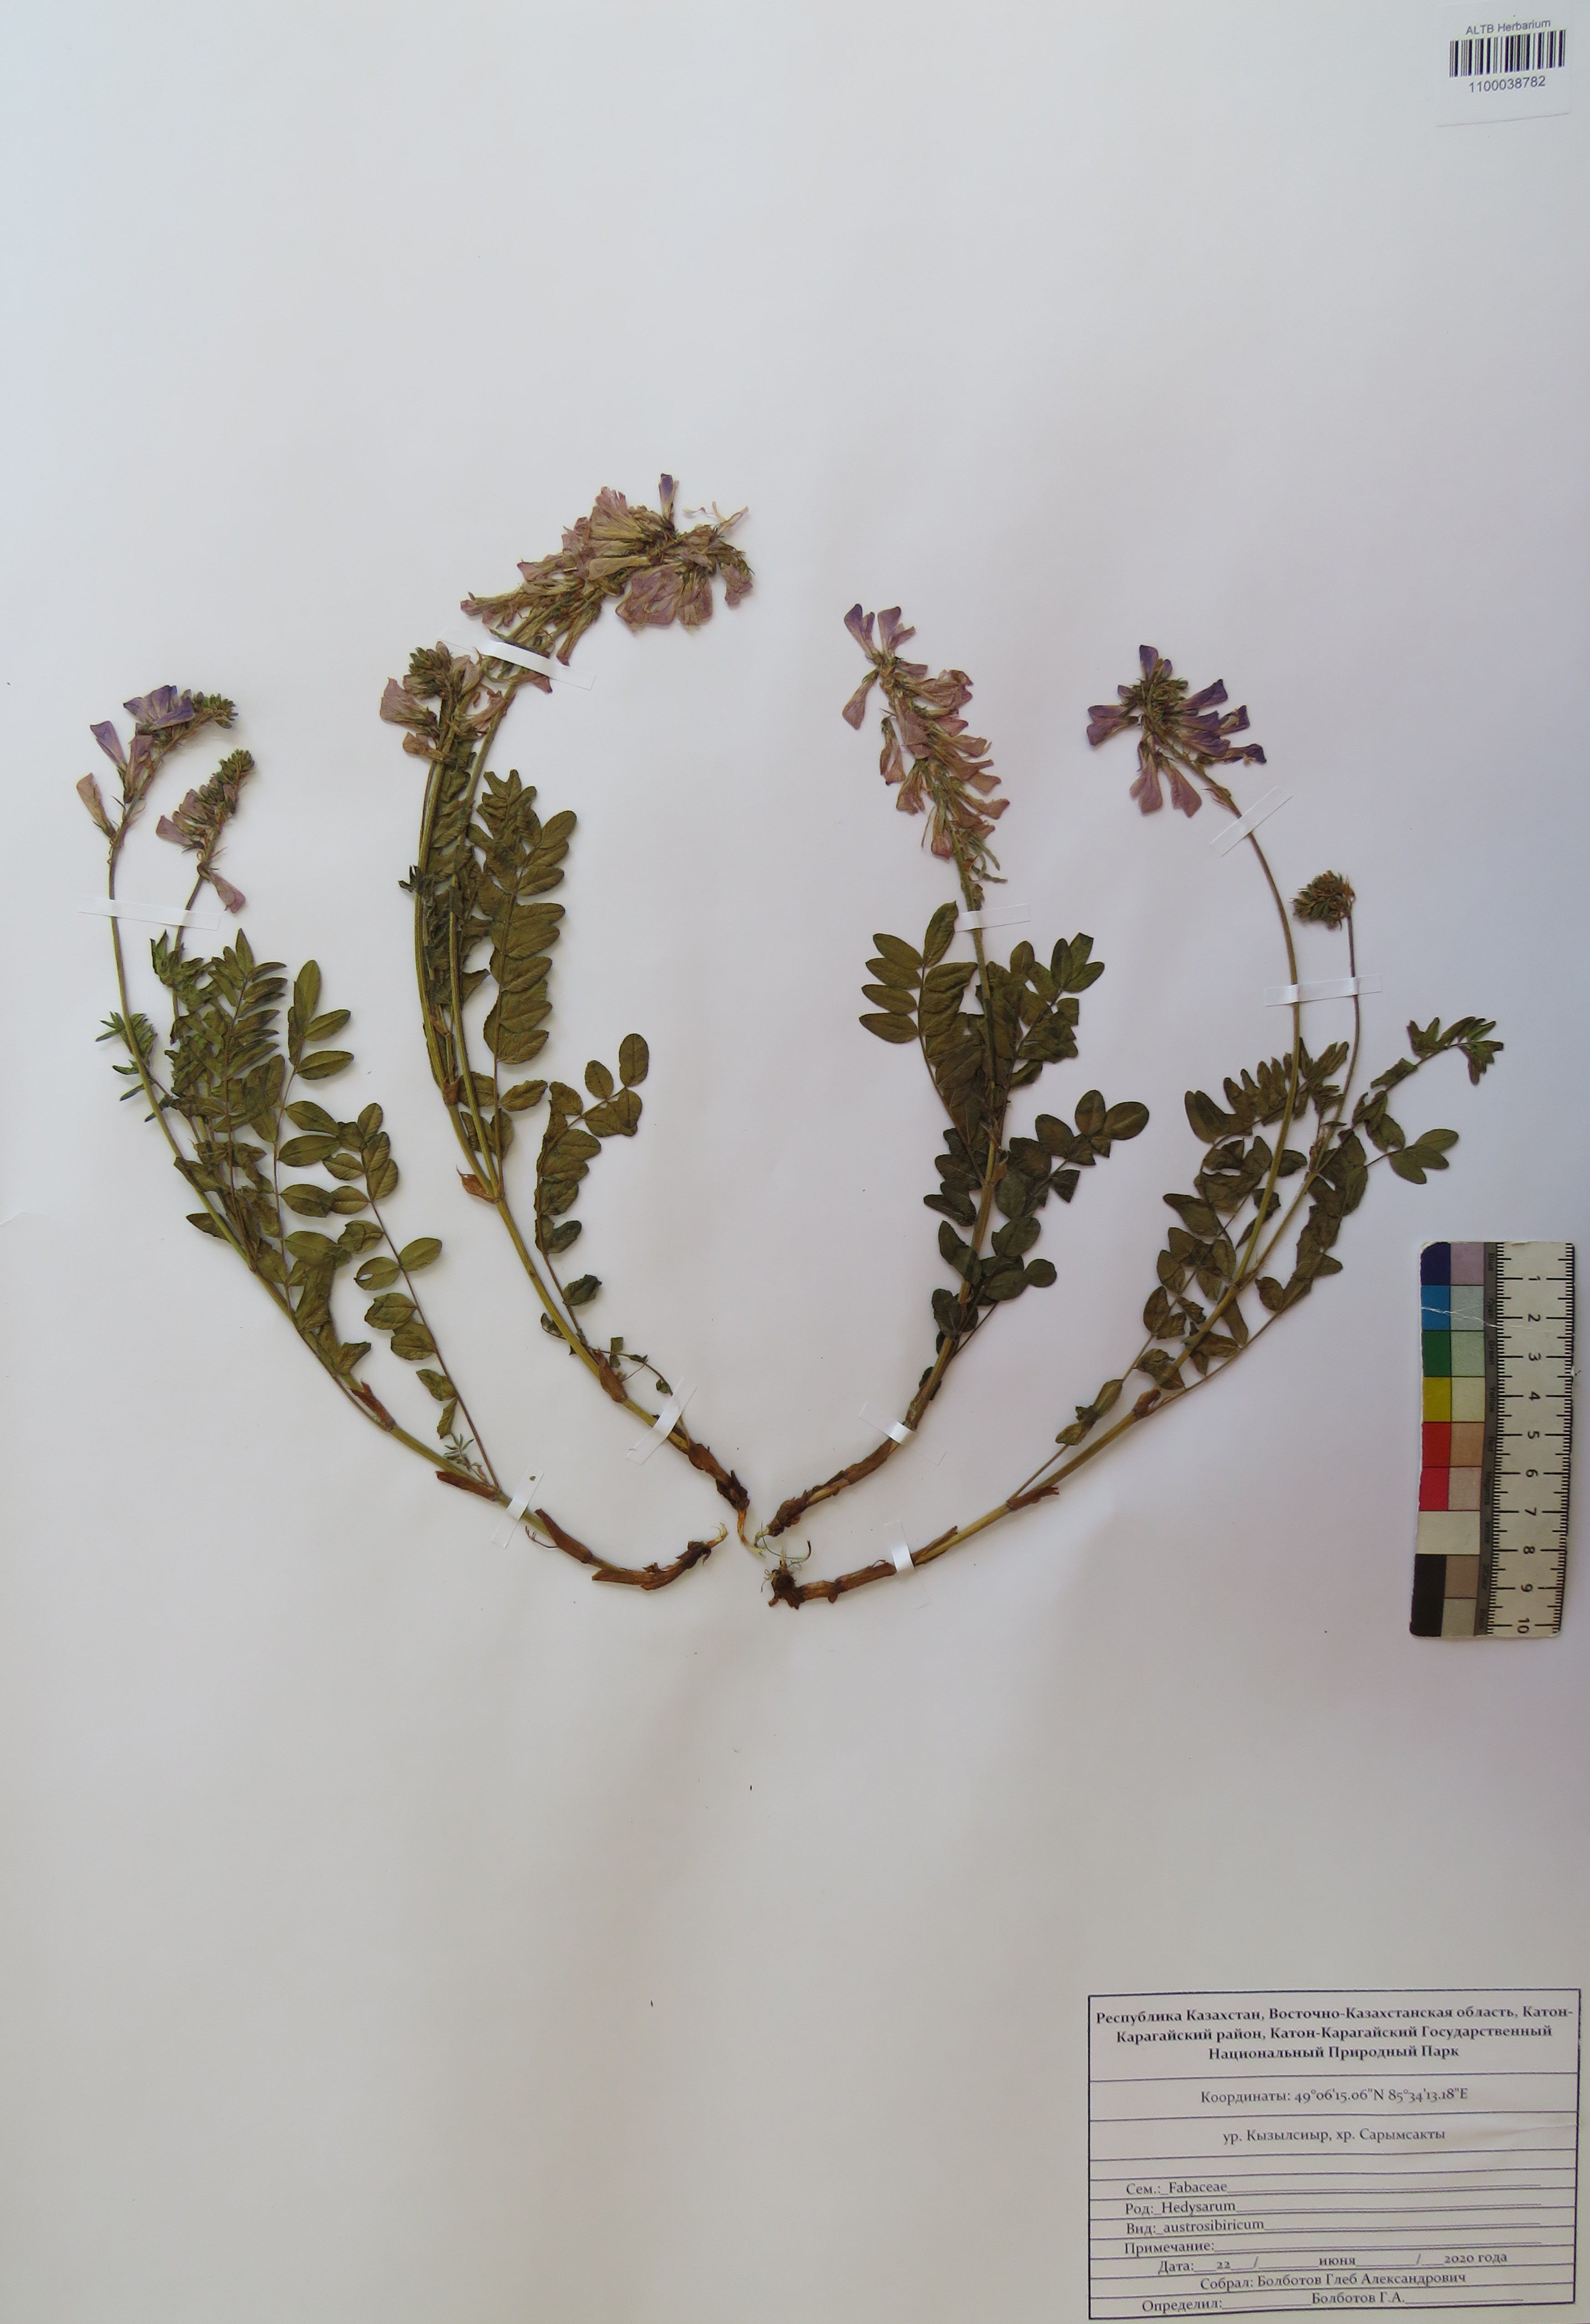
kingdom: Plantae
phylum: Tracheophyta
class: Magnoliopsida
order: Fabales
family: Fabaceae
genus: Hedysarum
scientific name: Hedysarum neglectum
